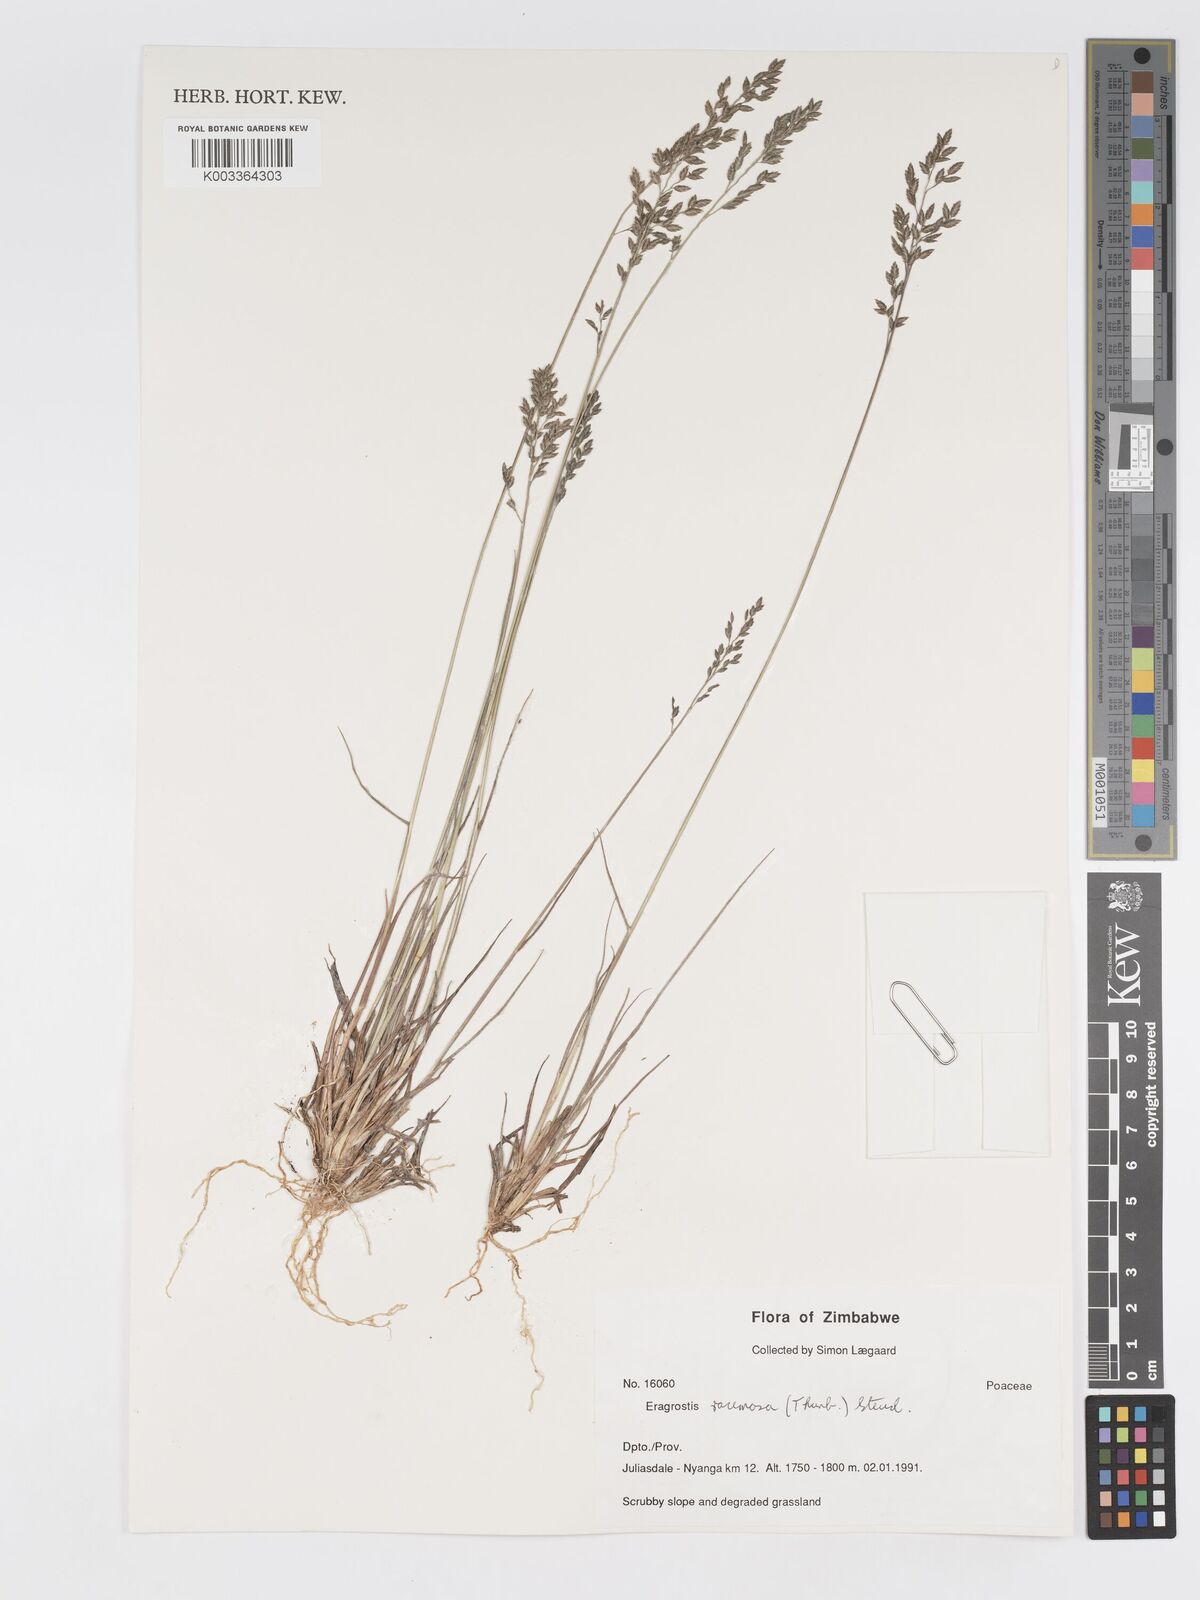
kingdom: Plantae
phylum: Tracheophyta
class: Liliopsida
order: Poales
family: Poaceae
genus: Eragrostis
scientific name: Eragrostis racemosa
